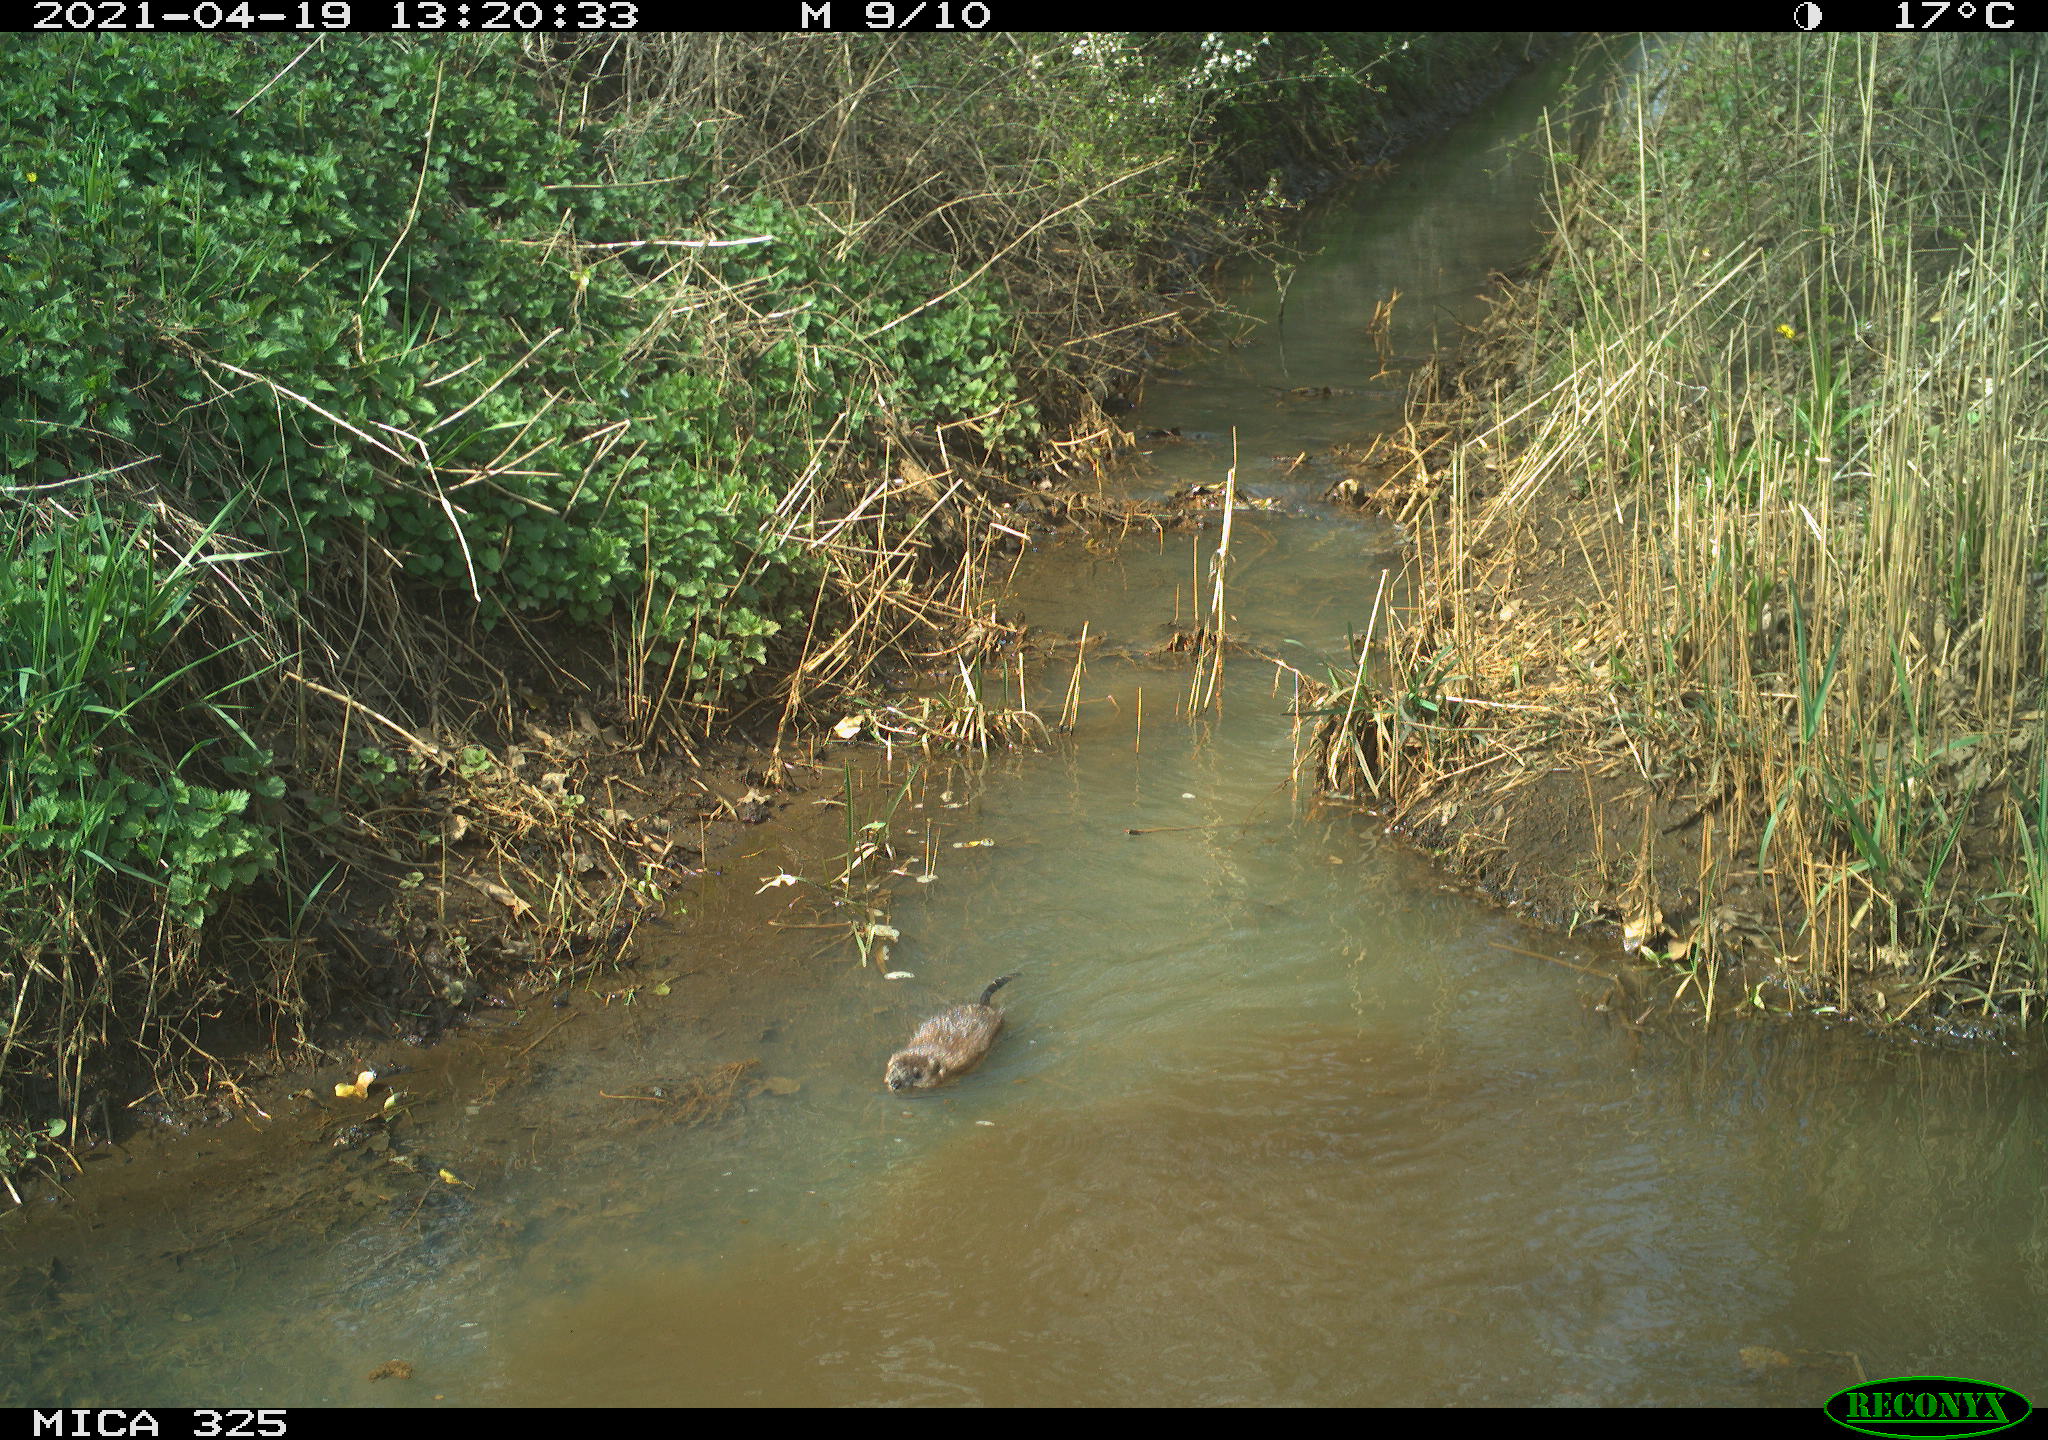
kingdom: Animalia
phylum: Chordata
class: Mammalia
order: Rodentia
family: Cricetidae
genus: Ondatra
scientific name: Ondatra zibethicus
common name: Muskrat
